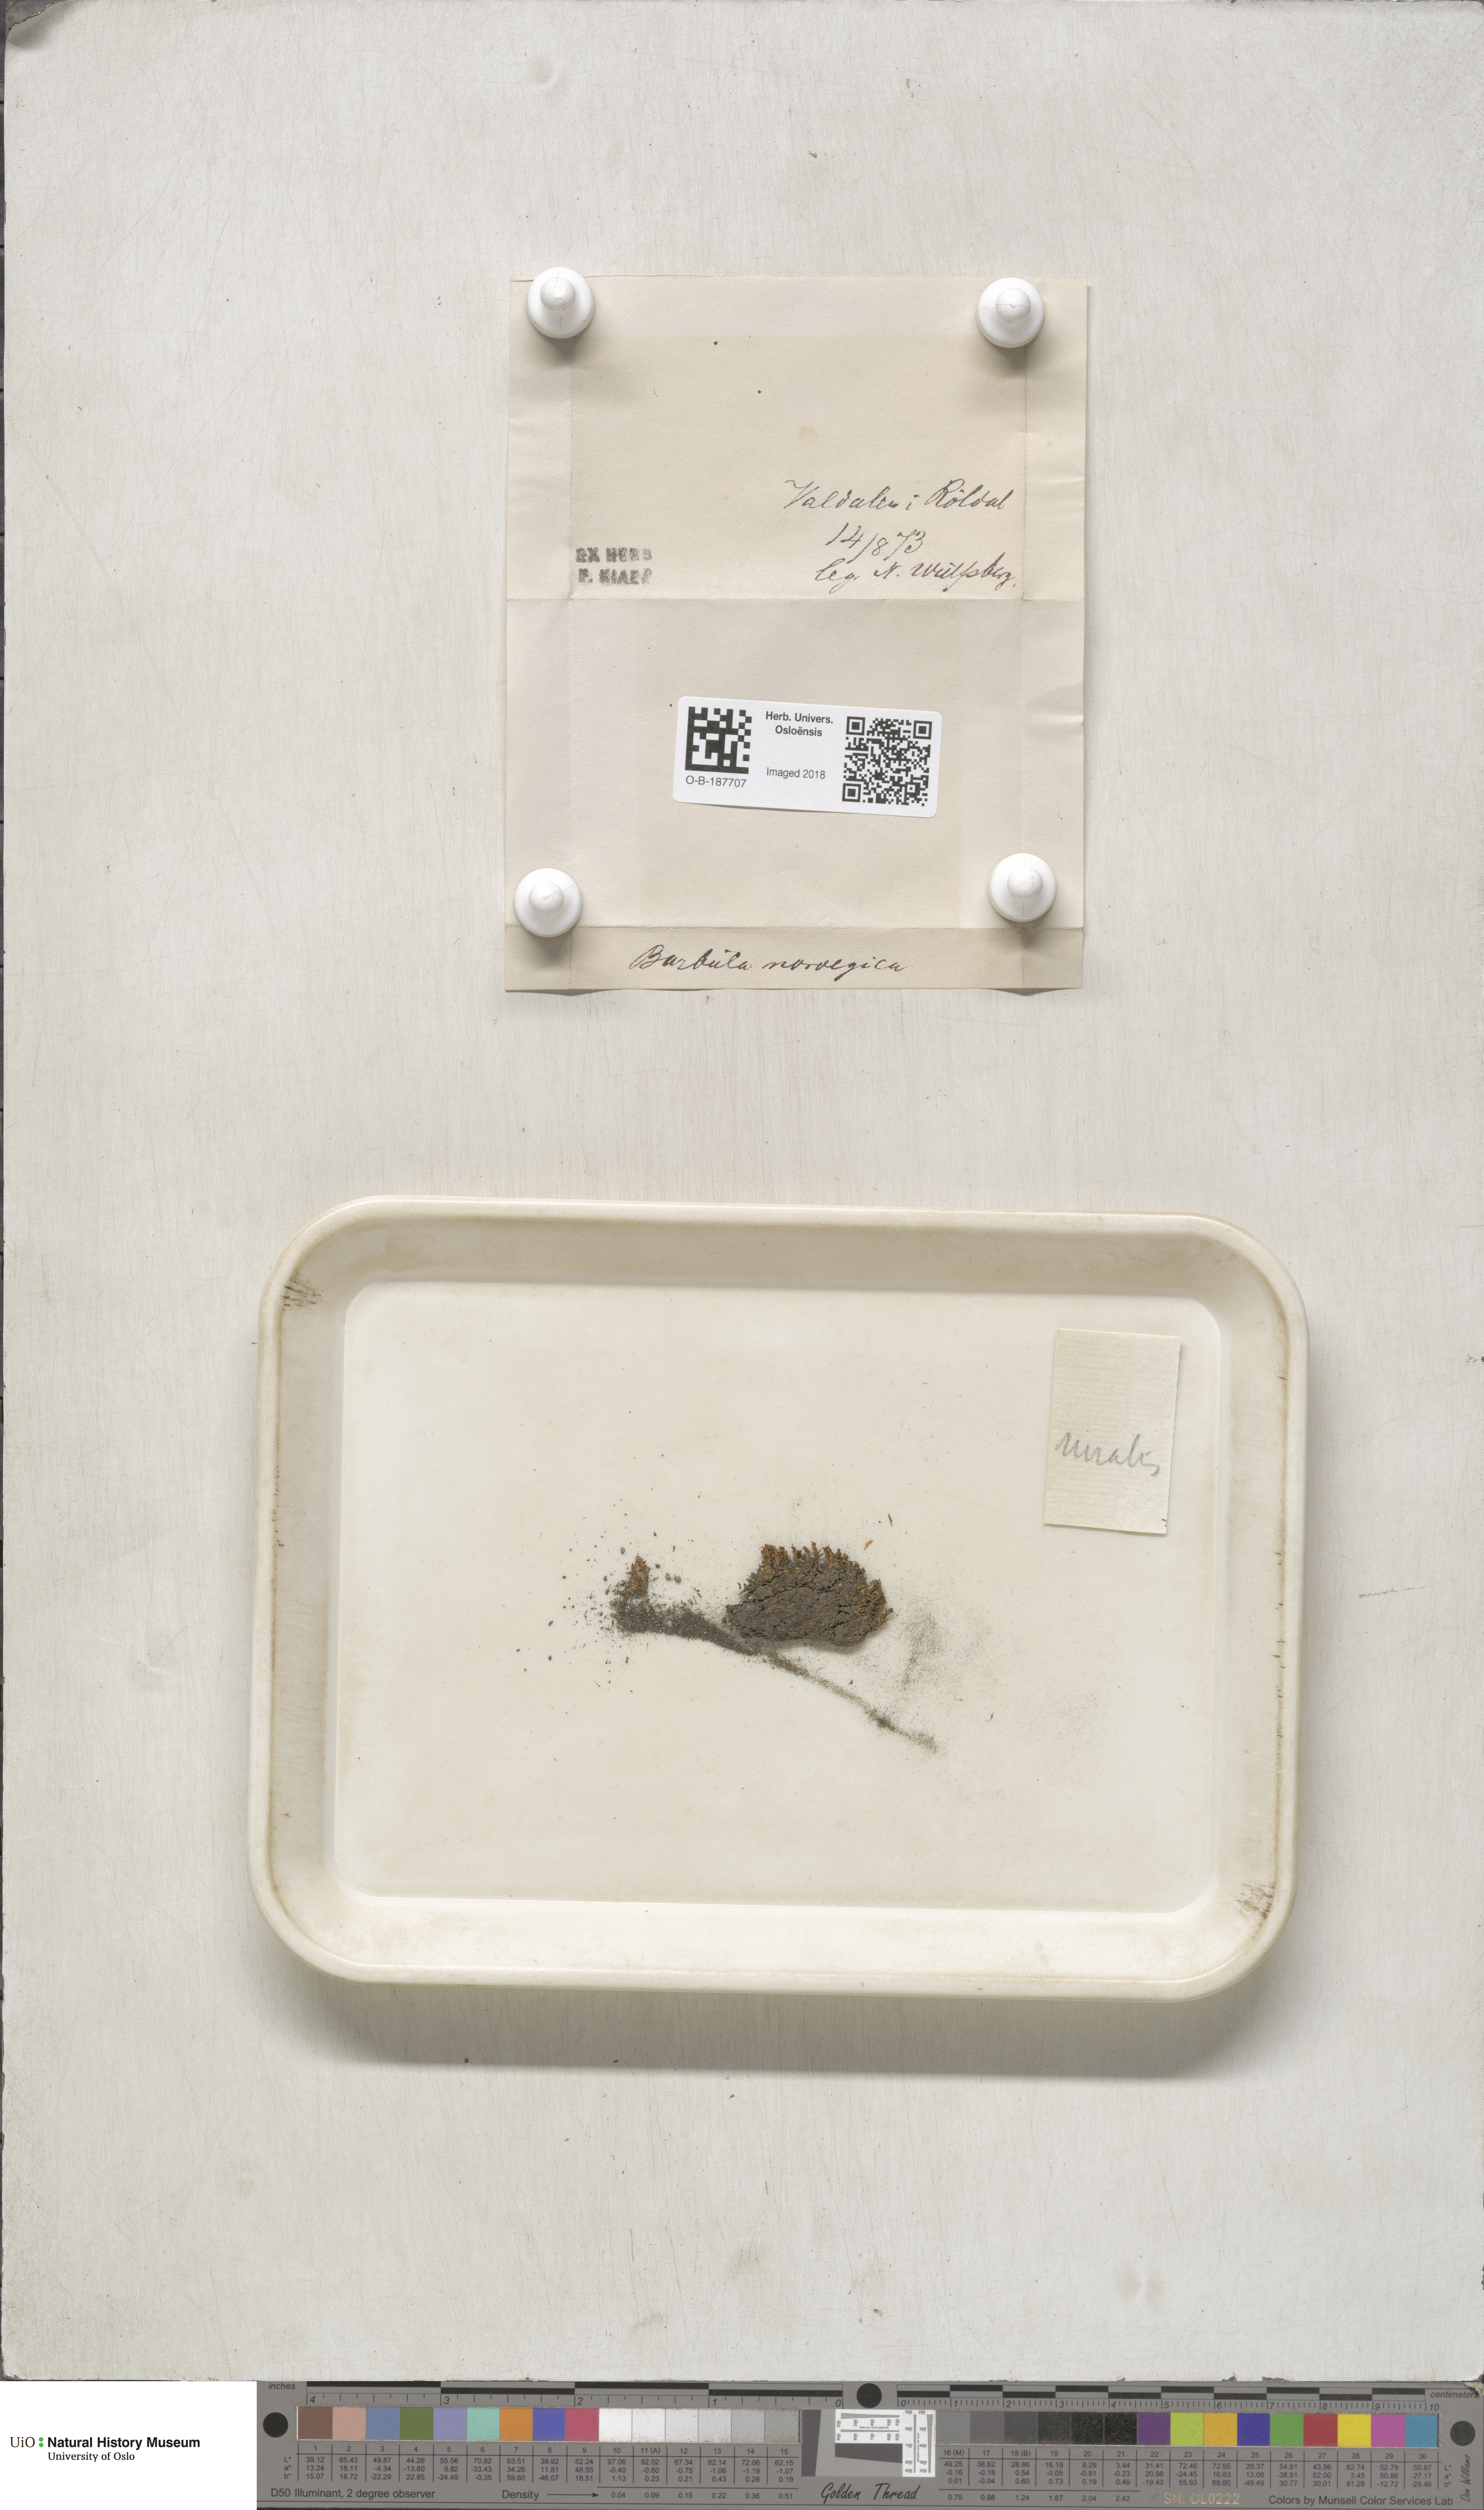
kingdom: Plantae
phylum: Bryophyta
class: Bryopsida
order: Pottiales
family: Pottiaceae
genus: Syntrichia
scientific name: Syntrichia ruralis
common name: Sidewalk screw moss
